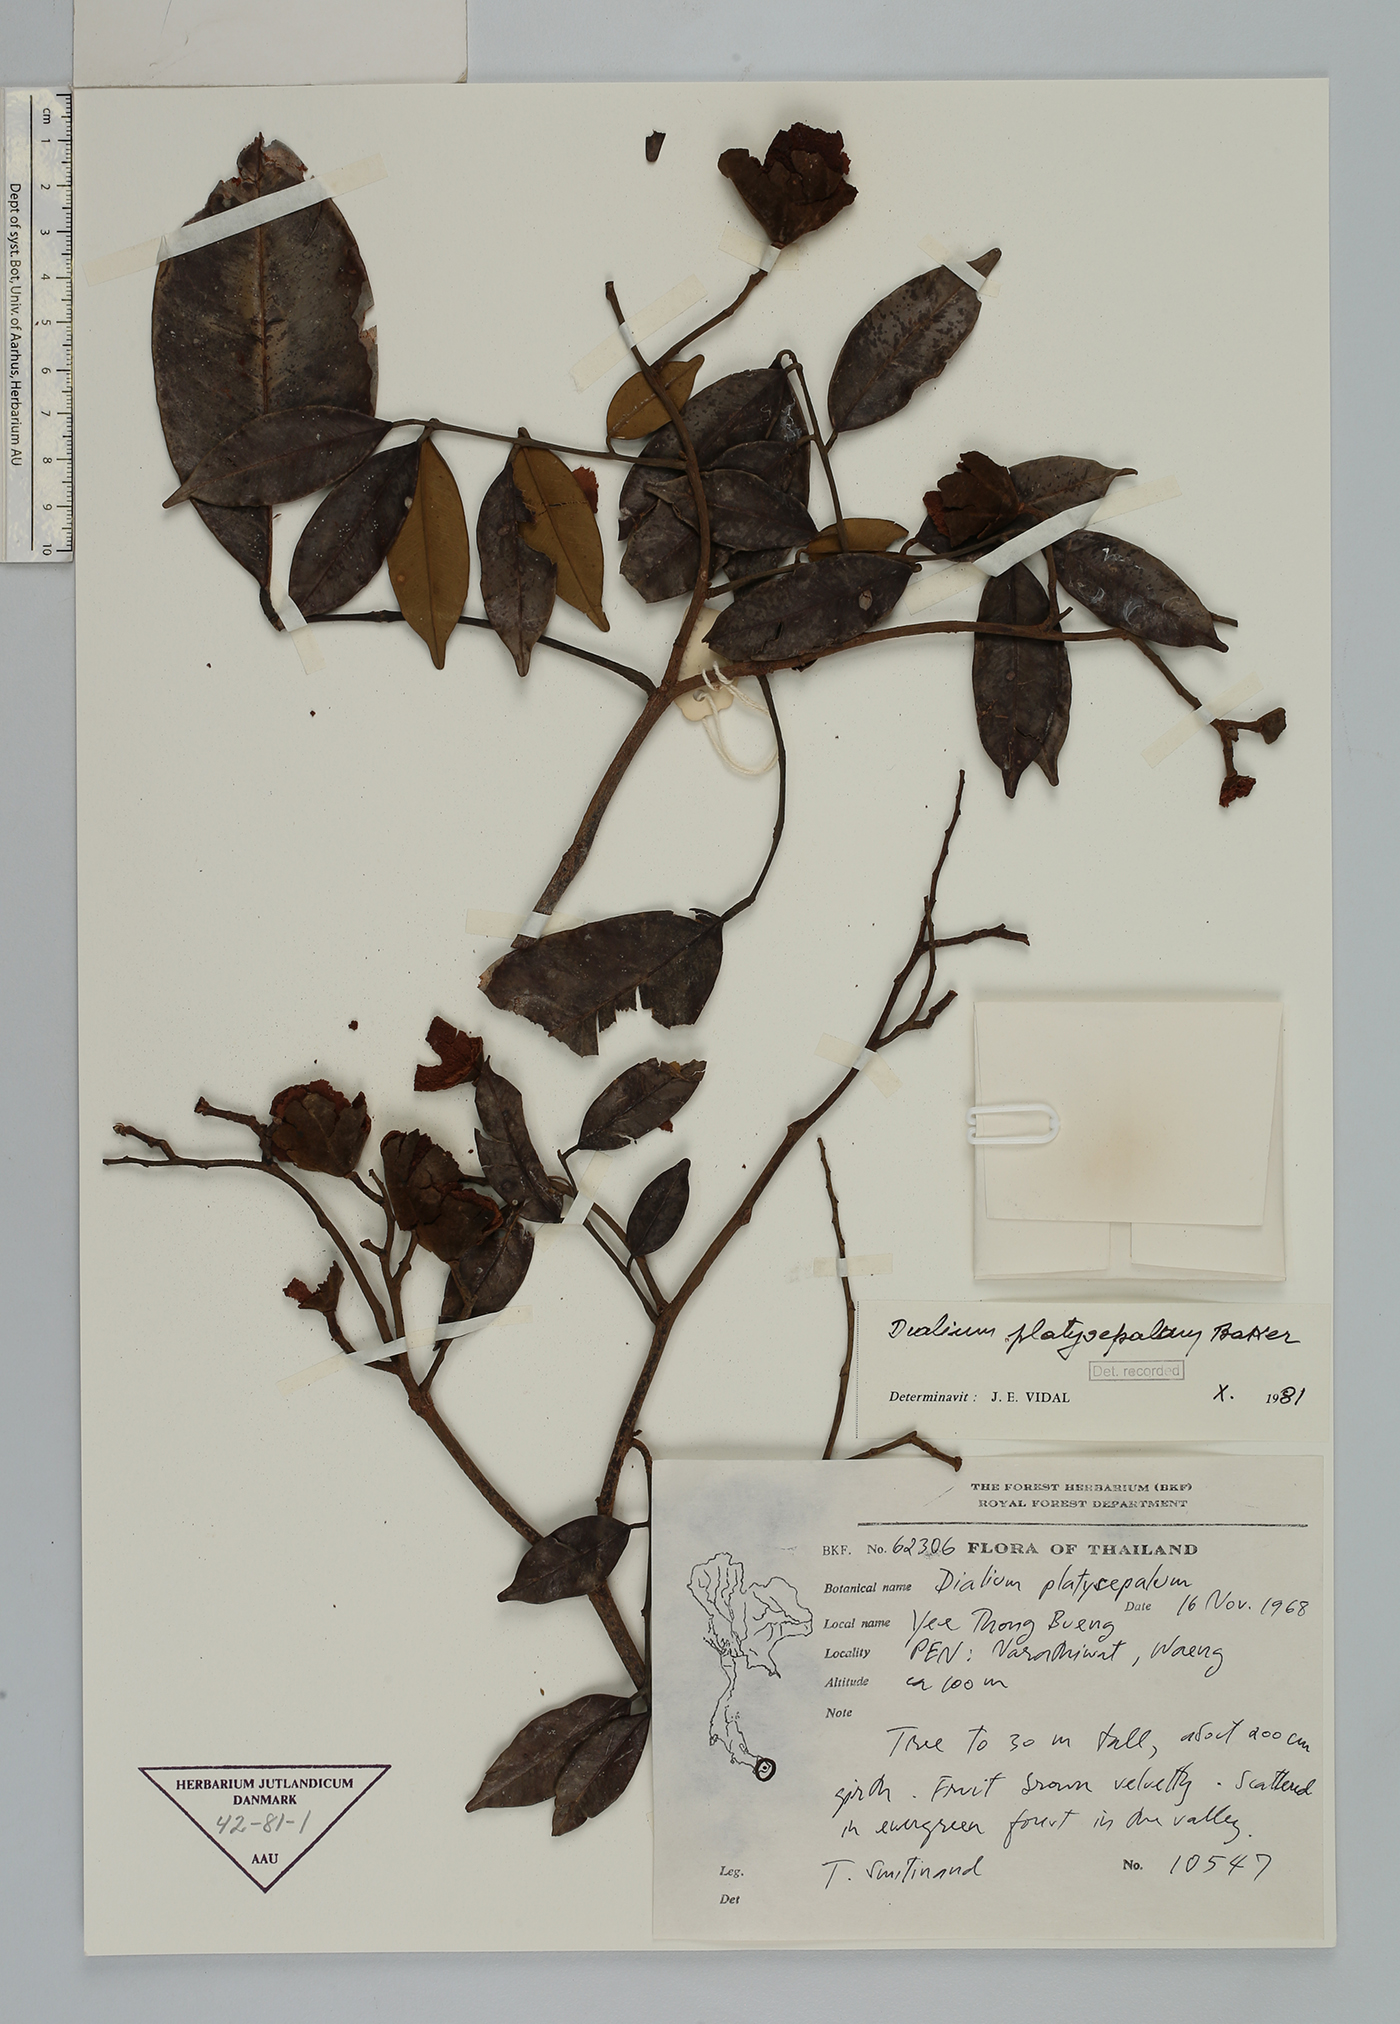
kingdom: Plantae
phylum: Tracheophyta
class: Magnoliopsida
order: Fabales
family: Fabaceae
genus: Dialium
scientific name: Dialium platysepalum
